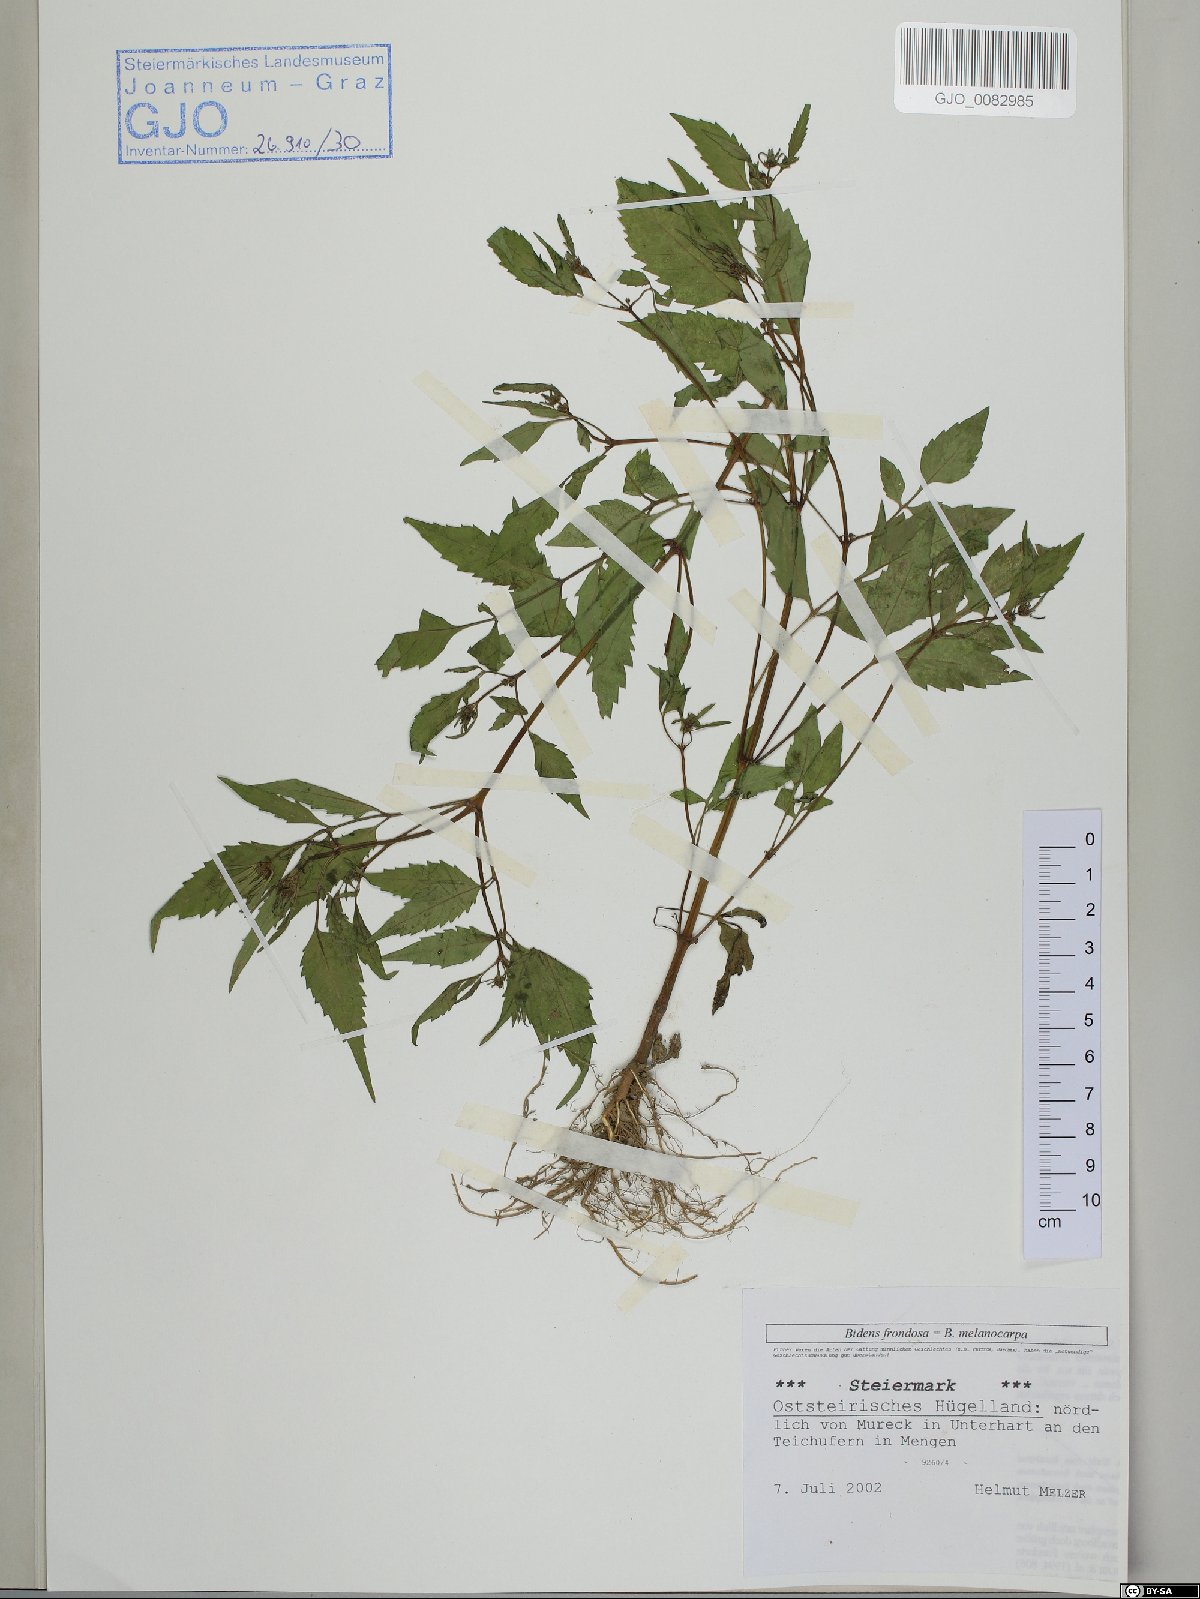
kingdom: Plantae
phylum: Tracheophyta
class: Magnoliopsida
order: Asterales
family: Asteraceae
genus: Bidens
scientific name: Bidens frondosa
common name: Beggarticks
